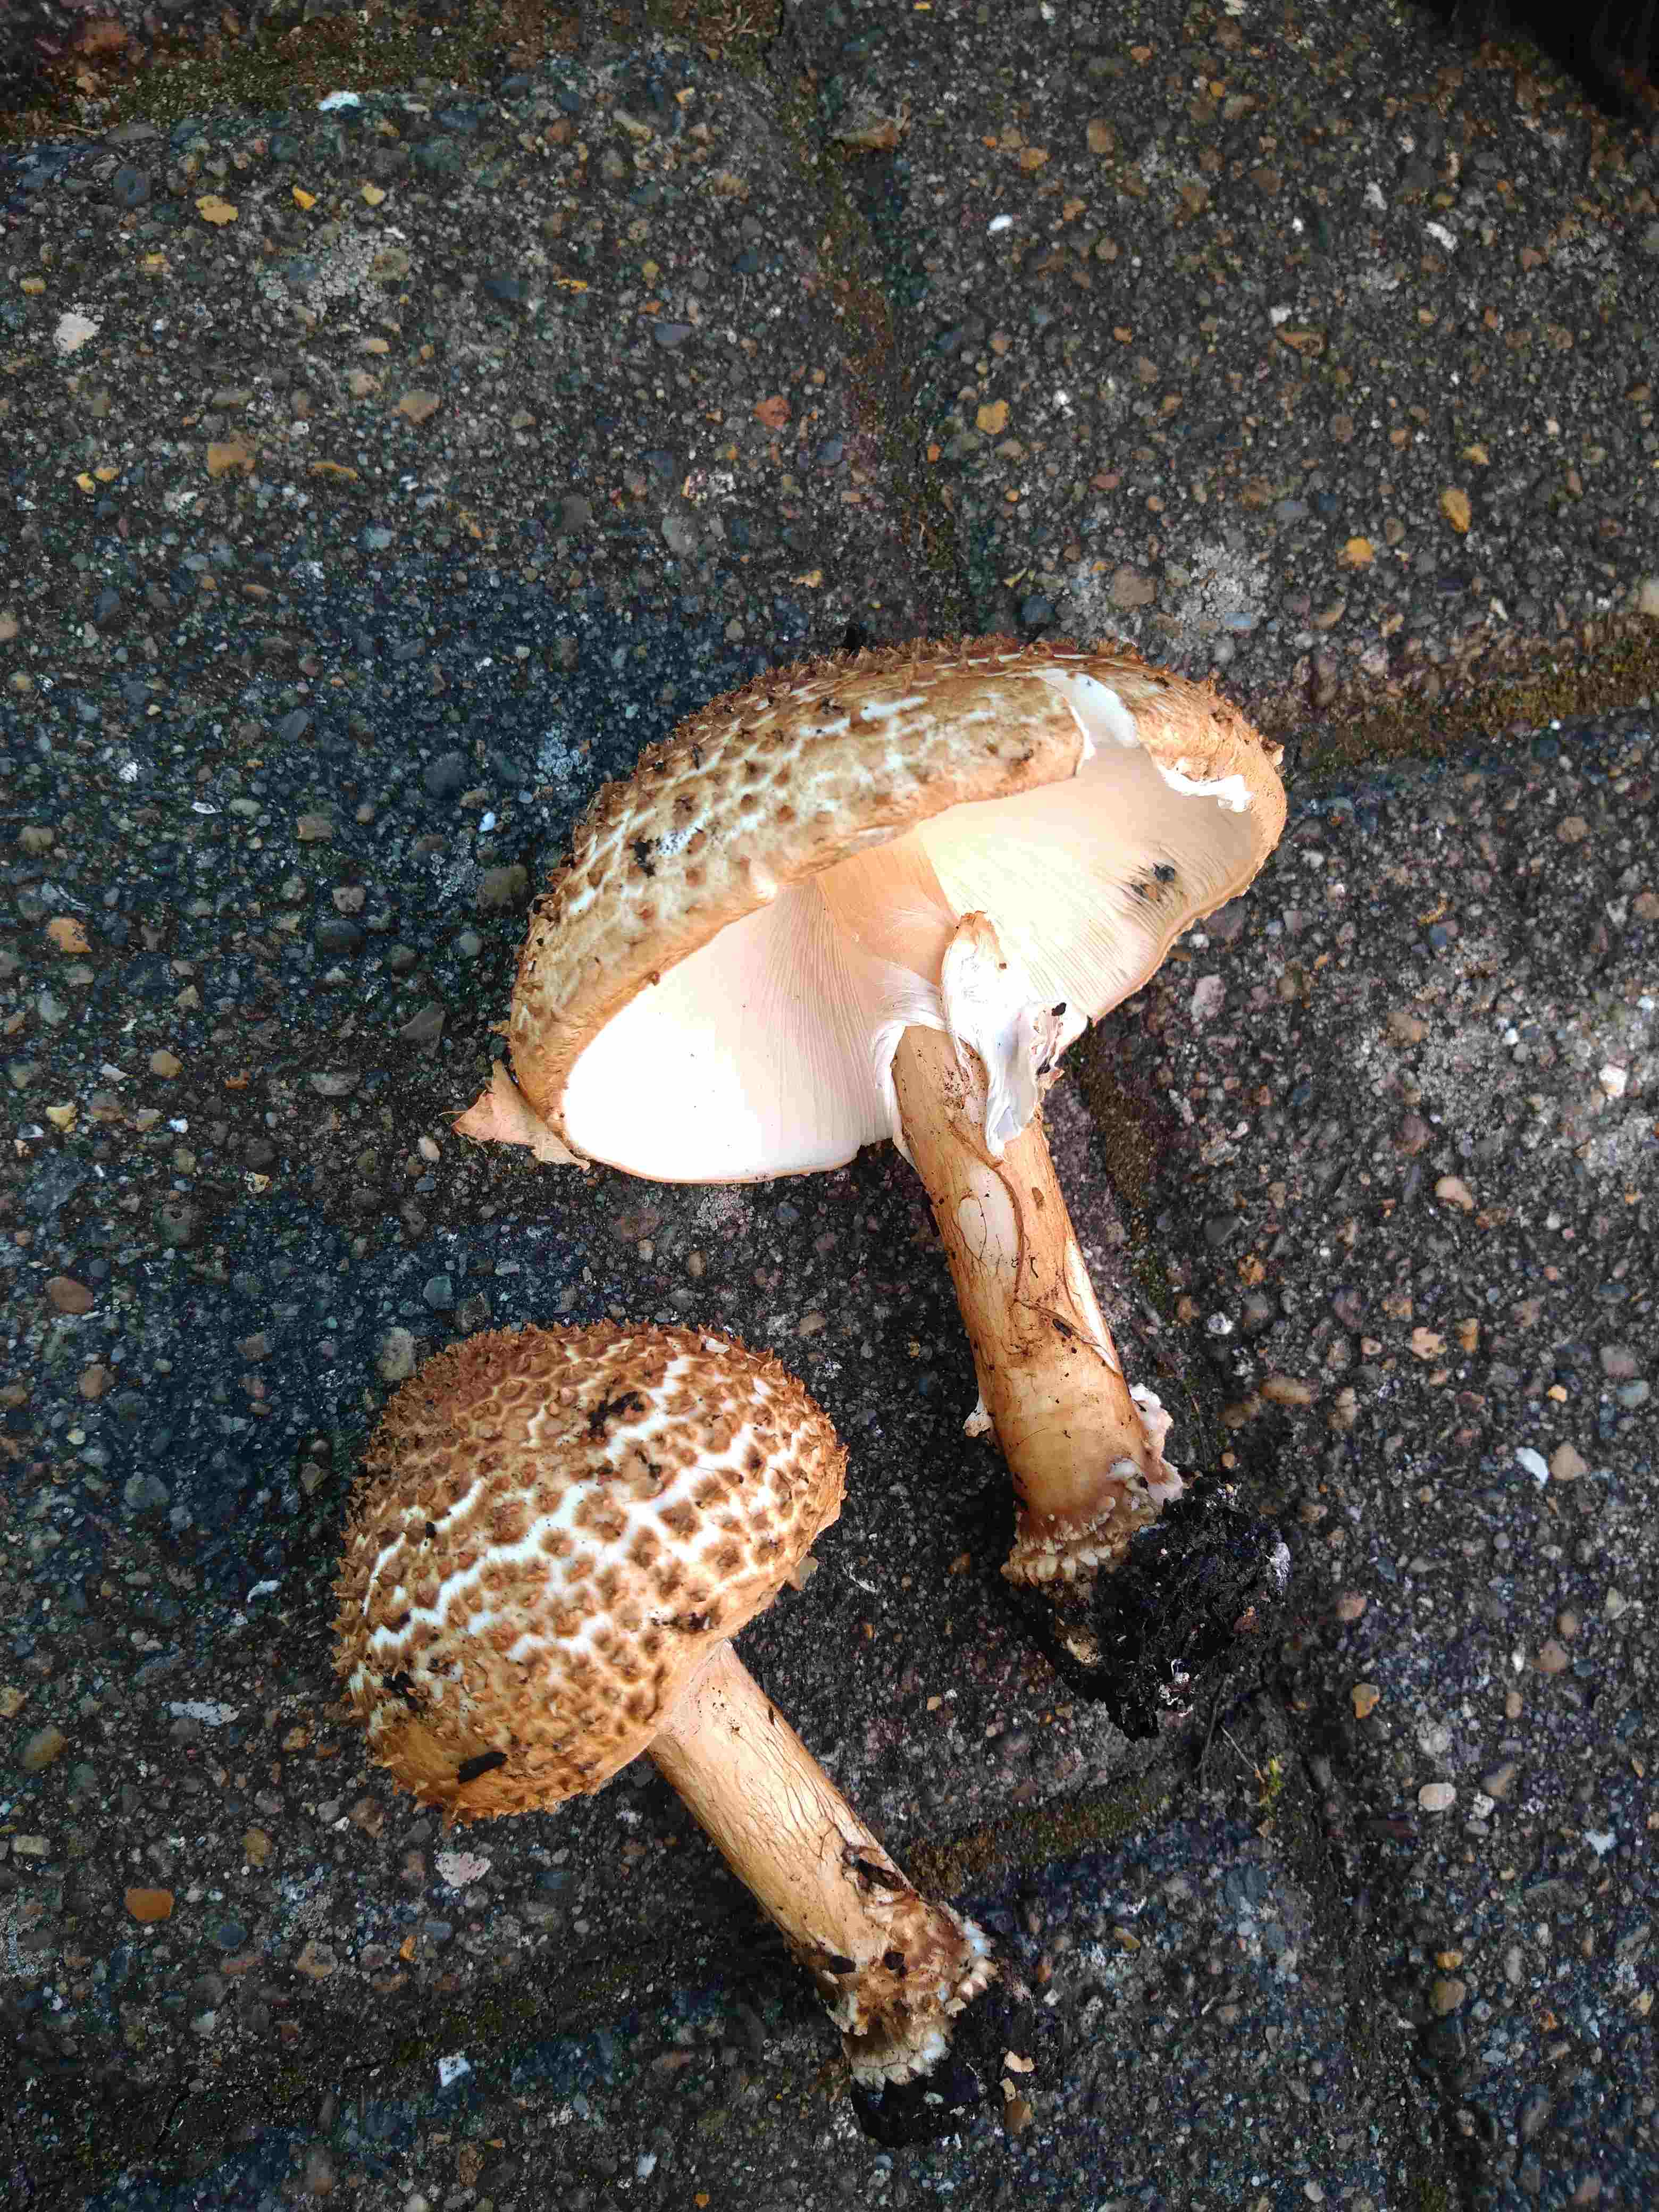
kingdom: Fungi
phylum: Basidiomycota
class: Agaricomycetes
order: Agaricales
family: Agaricaceae
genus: Echinoderma
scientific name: Echinoderma asperum
